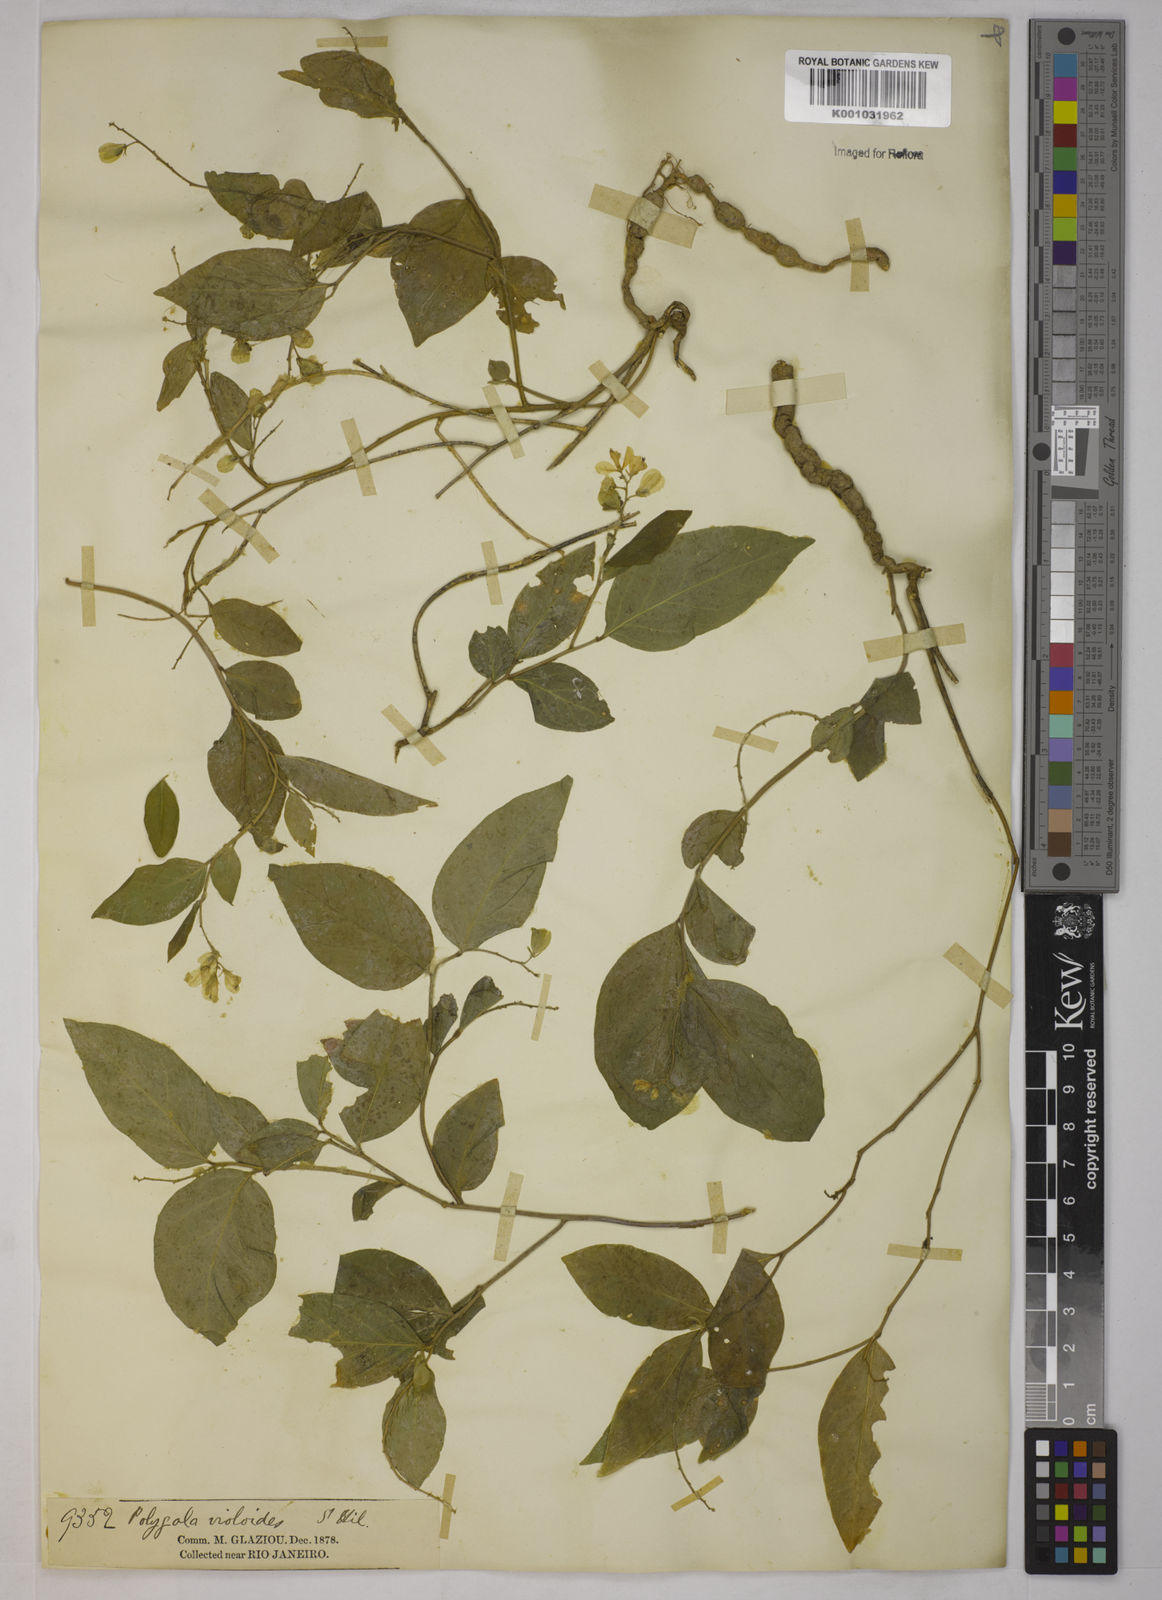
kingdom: Plantae
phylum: Tracheophyta
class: Magnoliopsida
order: Fabales
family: Polygalaceae
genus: Gymnospora
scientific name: Gymnospora violoides
